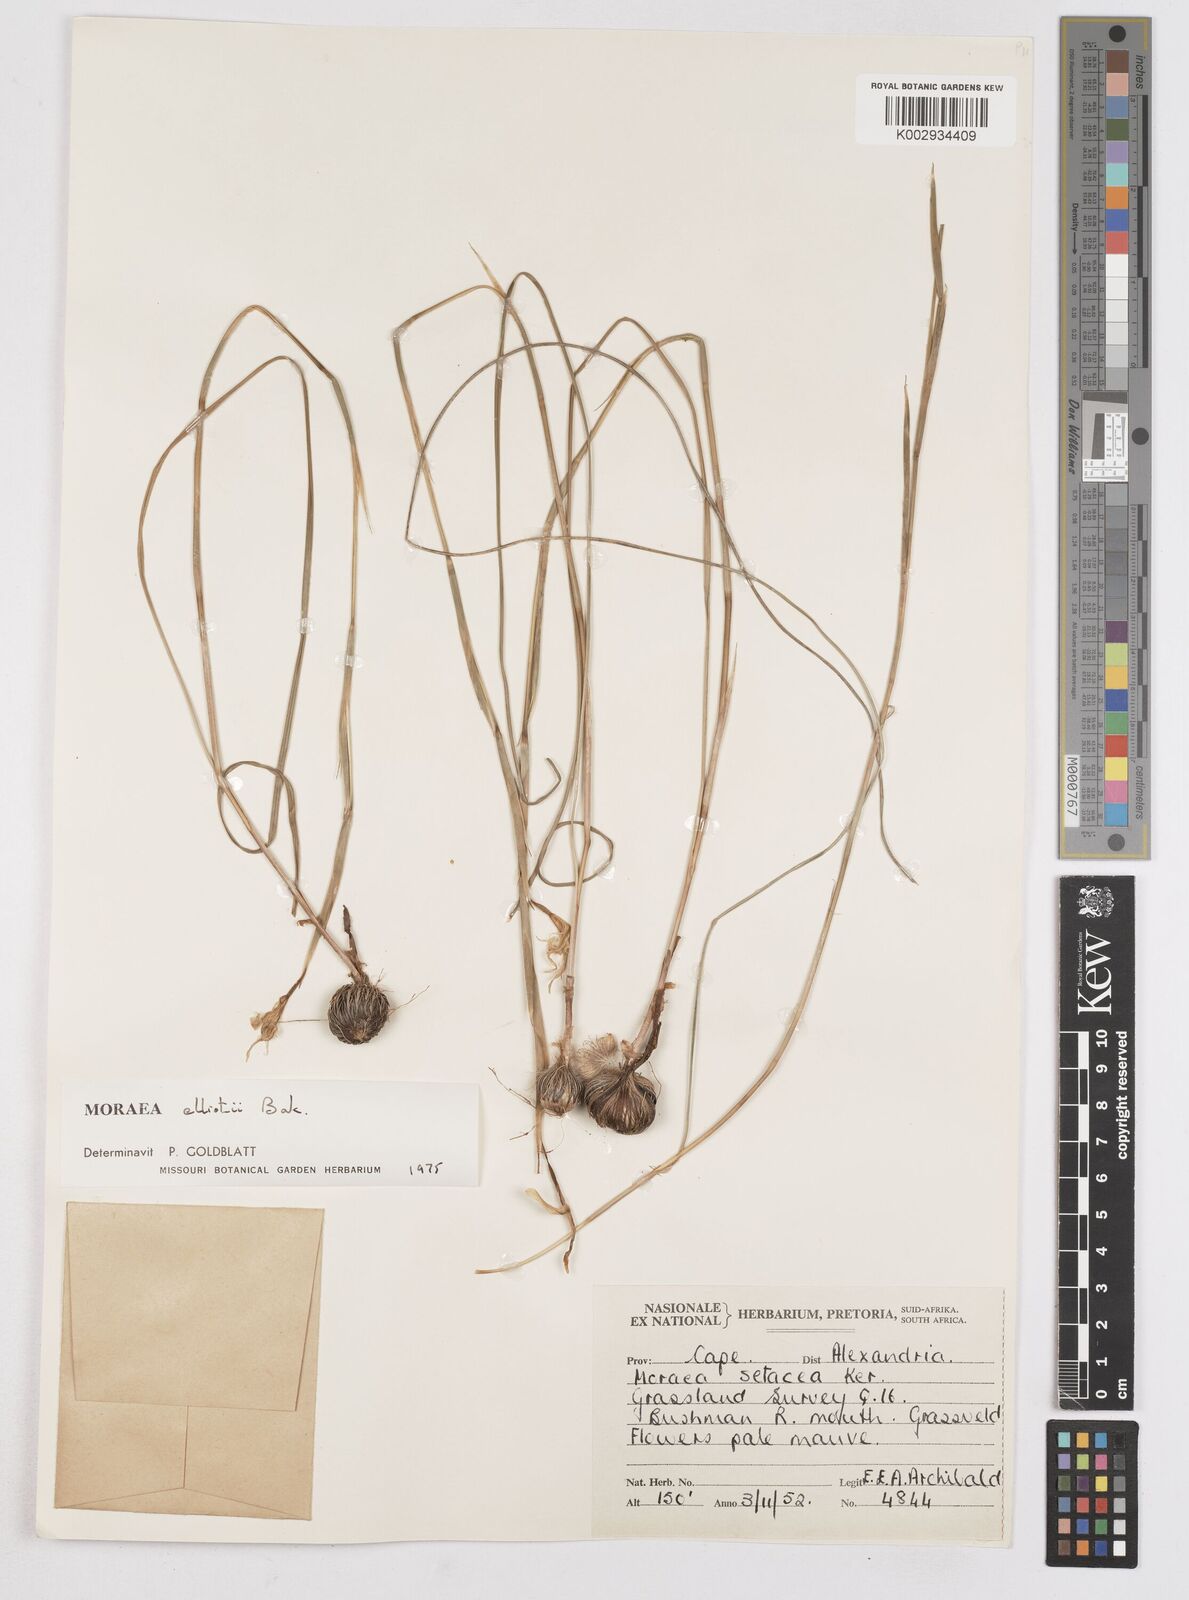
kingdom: Plantae
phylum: Tracheophyta
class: Liliopsida
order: Asparagales
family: Iridaceae
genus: Moraea
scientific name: Moraea elliotii
